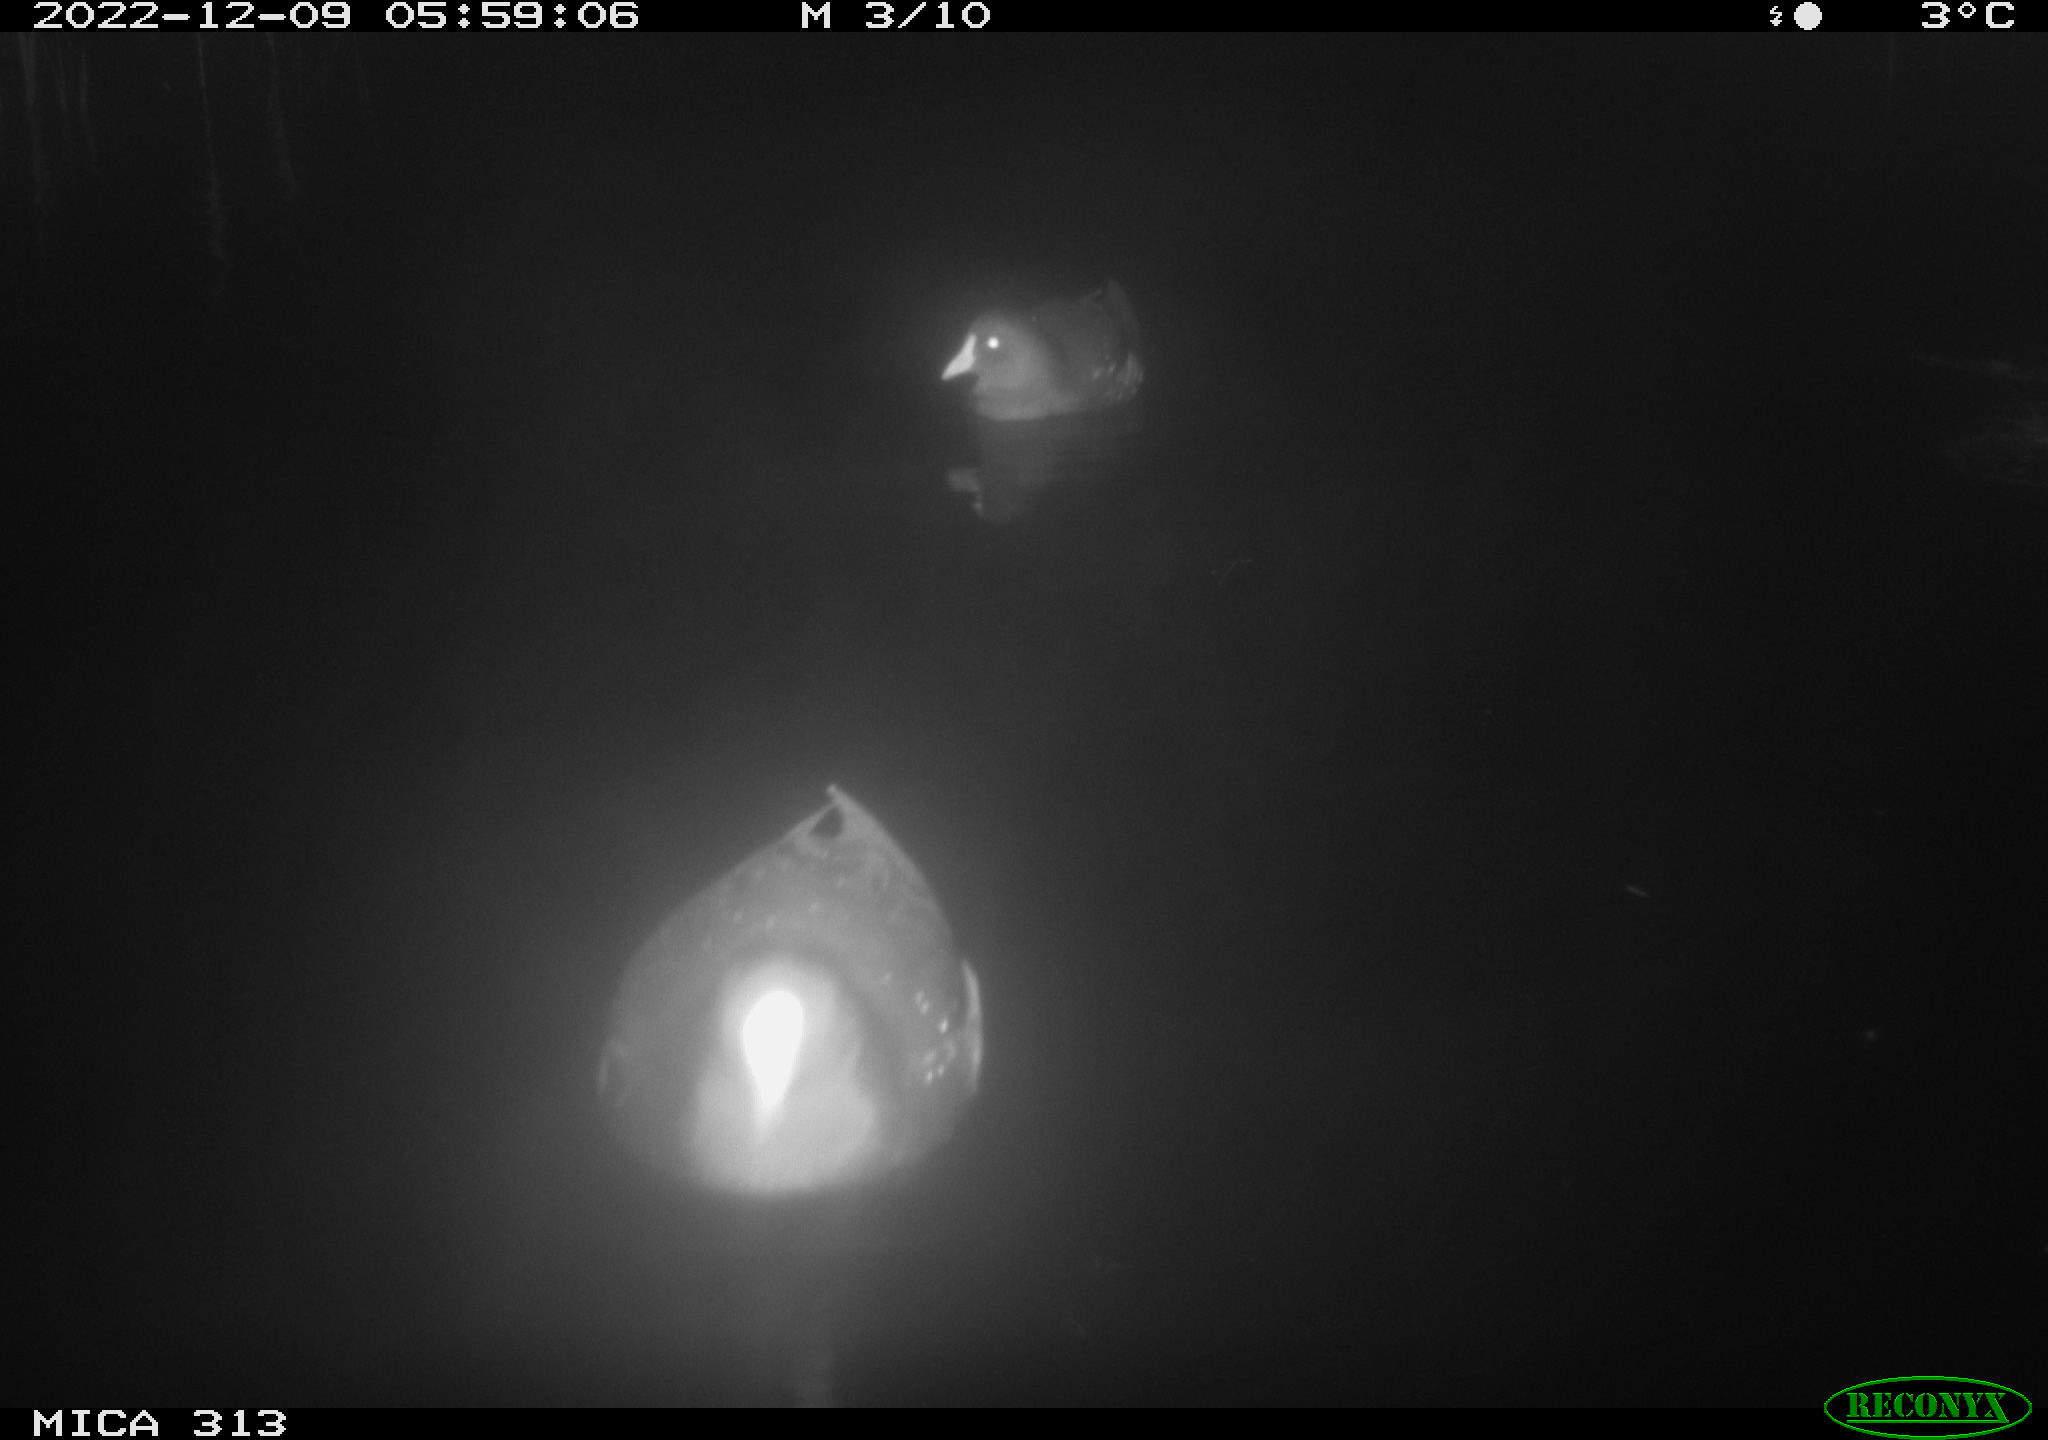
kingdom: Animalia
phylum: Chordata
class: Aves
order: Gruiformes
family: Rallidae
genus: Gallinula
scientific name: Gallinula chloropus
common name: Common moorhen
